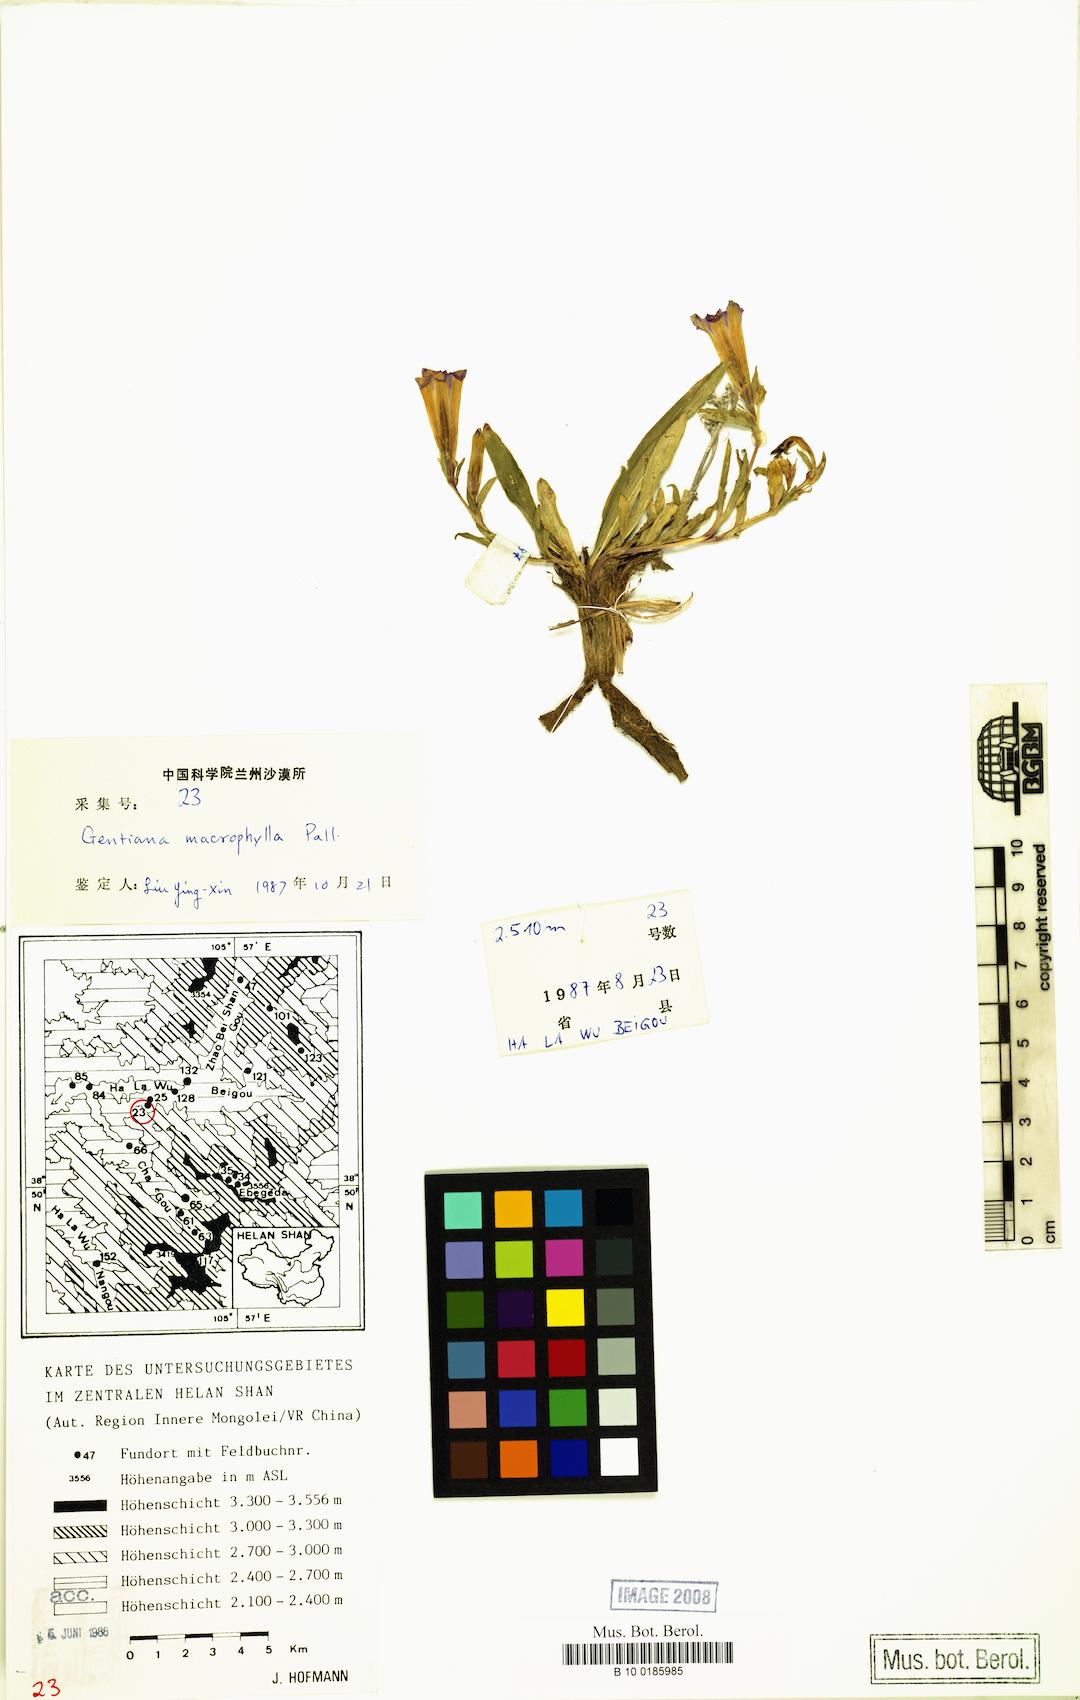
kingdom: Plantae
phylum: Tracheophyta
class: Magnoliopsida
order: Gentianales
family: Gentianaceae
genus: Gentiana
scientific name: Gentiana macrophylla
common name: Large-leaf gentian
